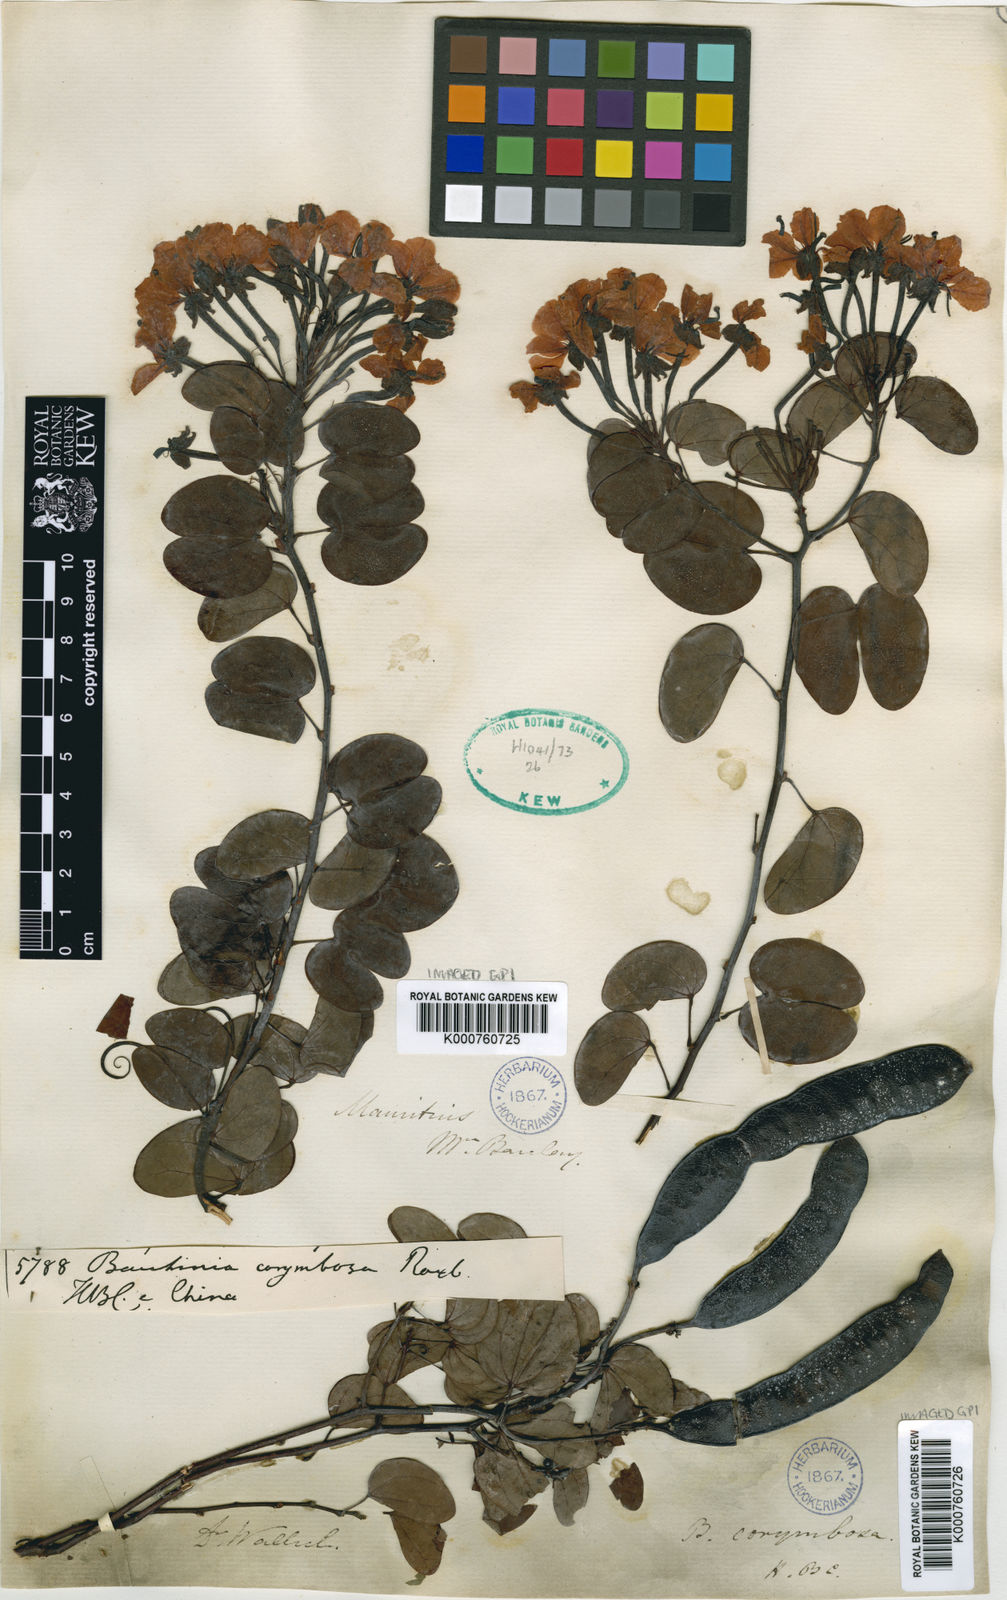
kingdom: Plantae
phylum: Tracheophyta
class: Magnoliopsida
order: Fabales
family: Fabaceae
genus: Cheniella
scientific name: Cheniella corymbosa
